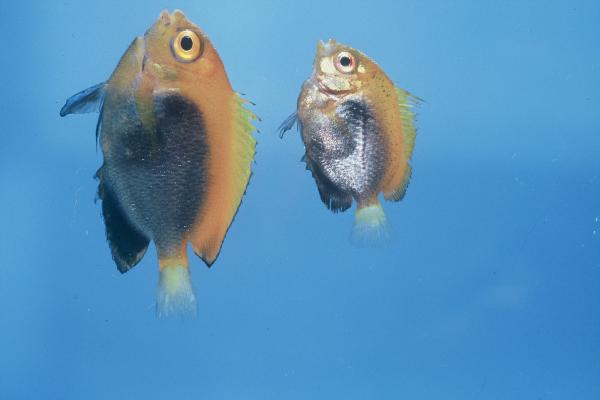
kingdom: Animalia
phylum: Chordata
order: Perciformes
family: Pomacanthidae
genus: Centropyge
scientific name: Centropyge acanthops
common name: African pygmy angelfish
